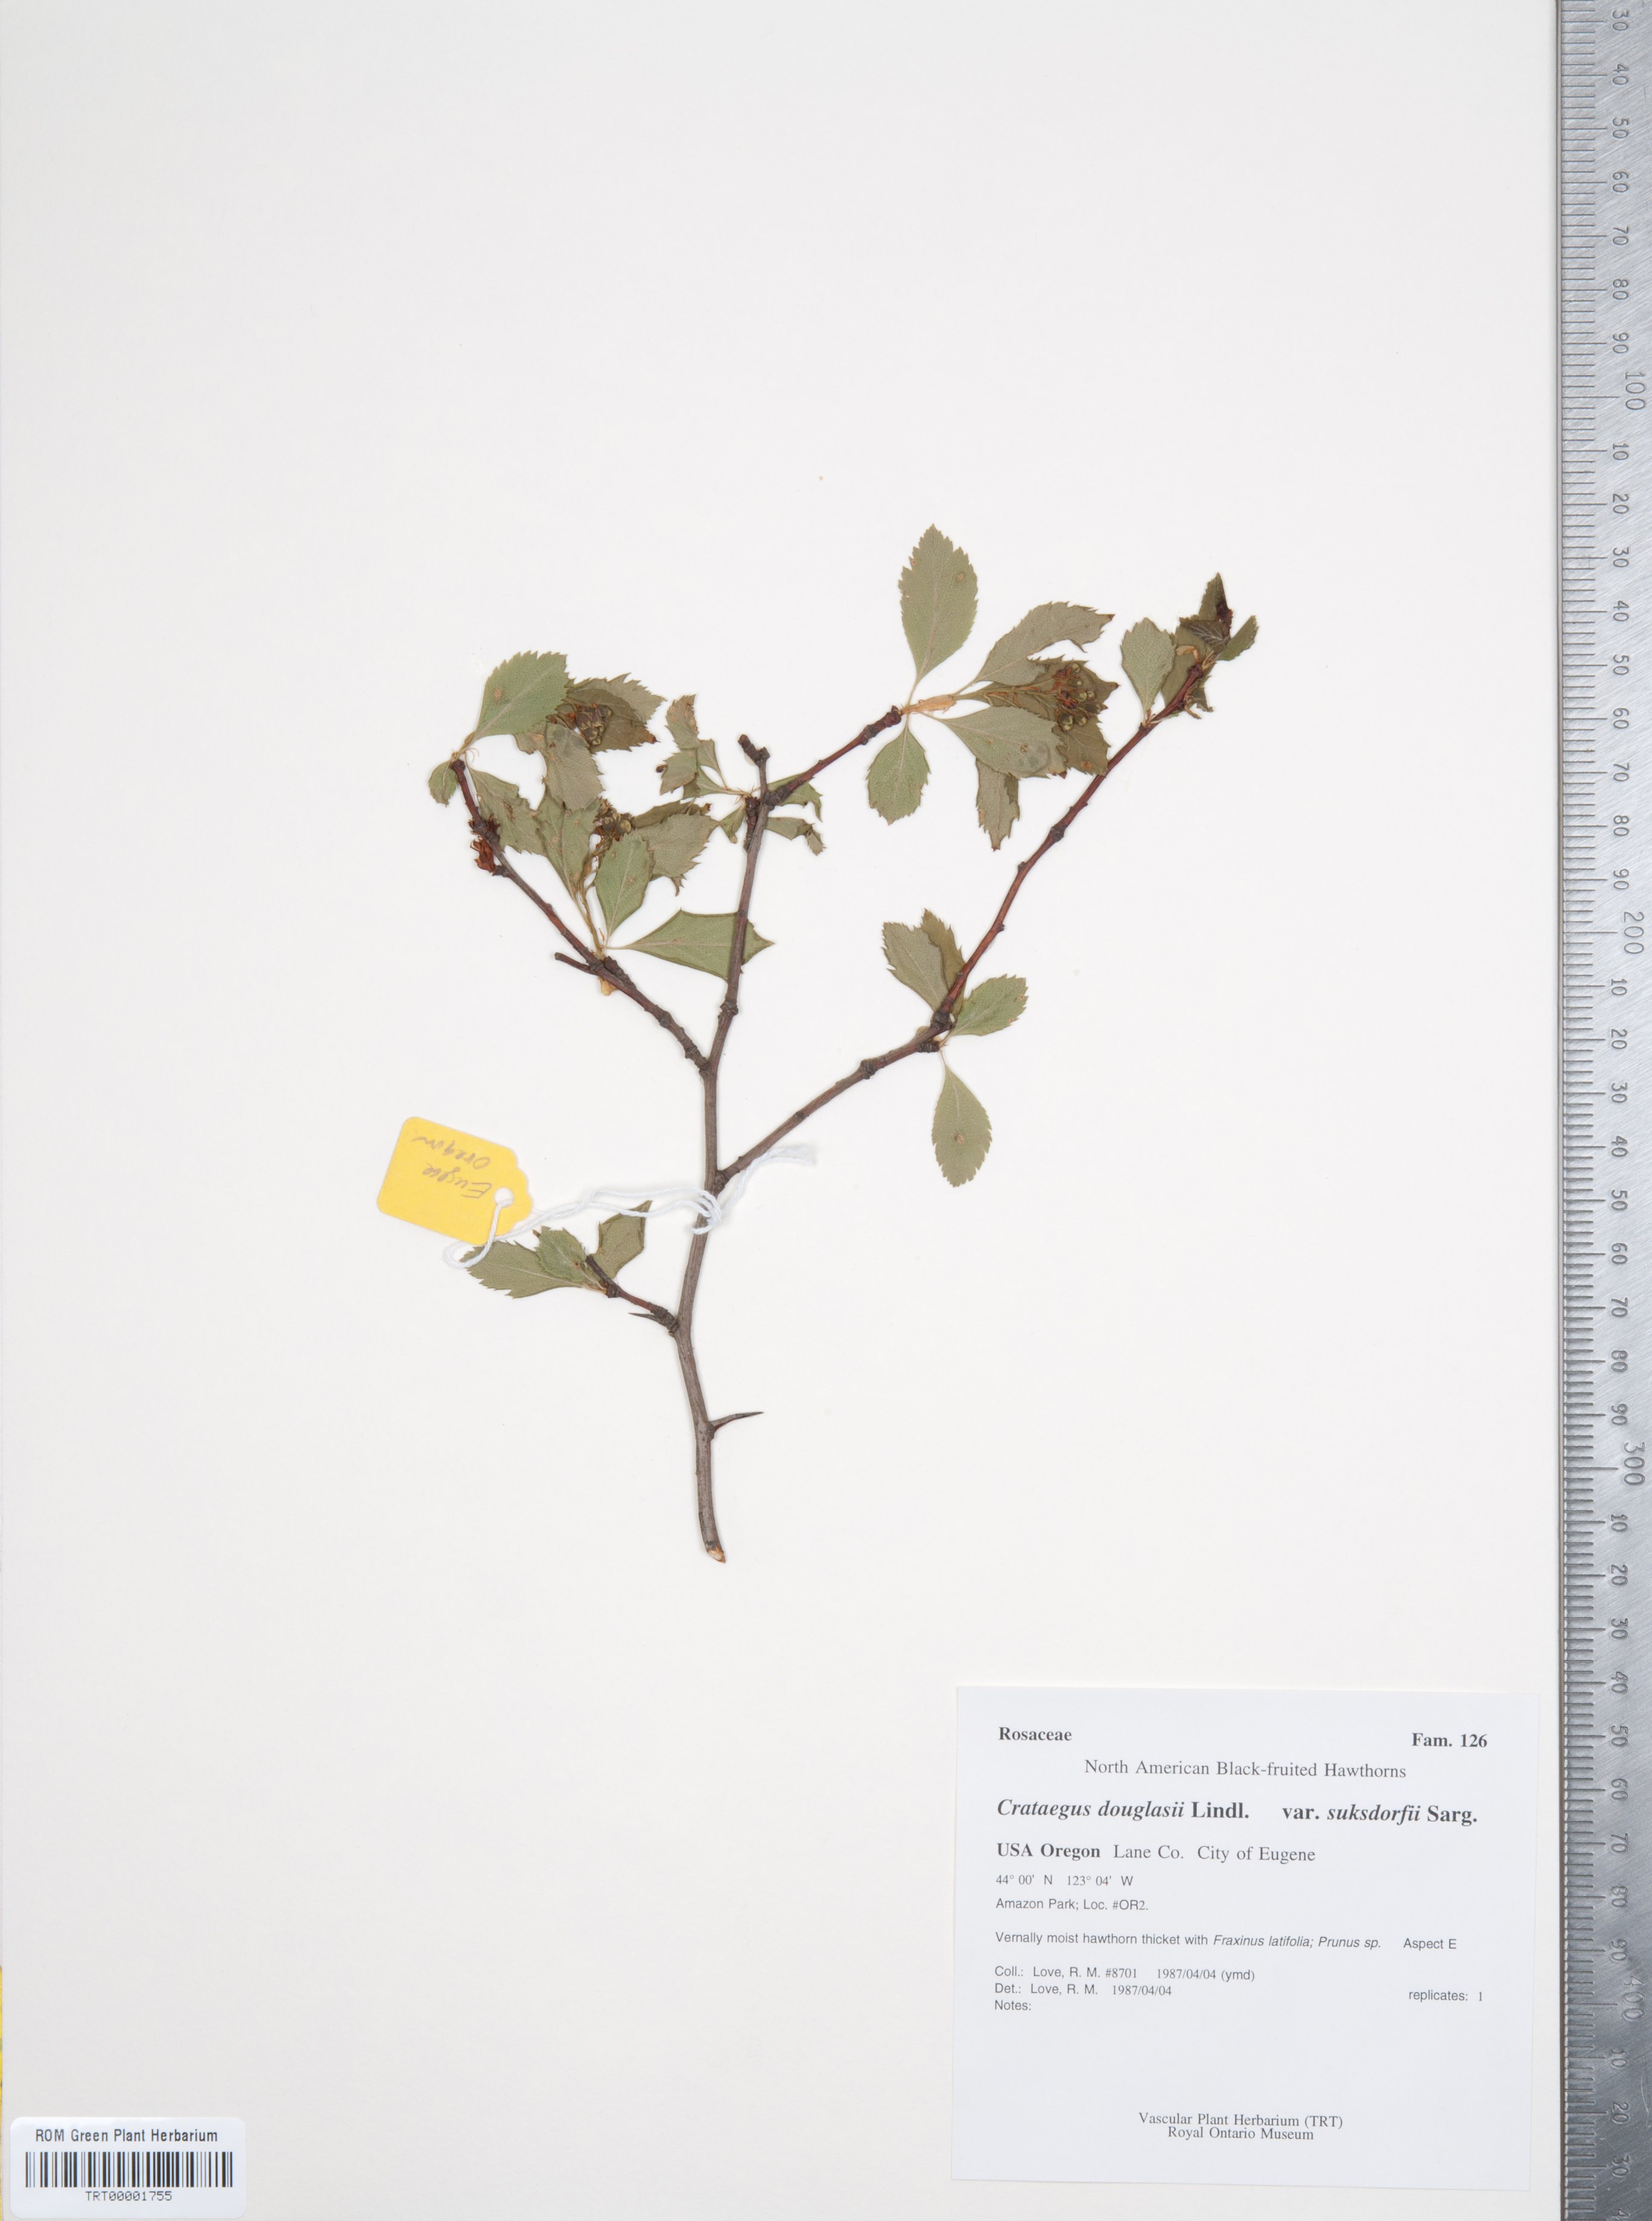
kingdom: Plantae
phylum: Tracheophyta
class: Magnoliopsida
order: Rosales
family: Rosaceae
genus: Crataegus
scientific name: Crataegus gaylussacia
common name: Huckleberry hawthorn
